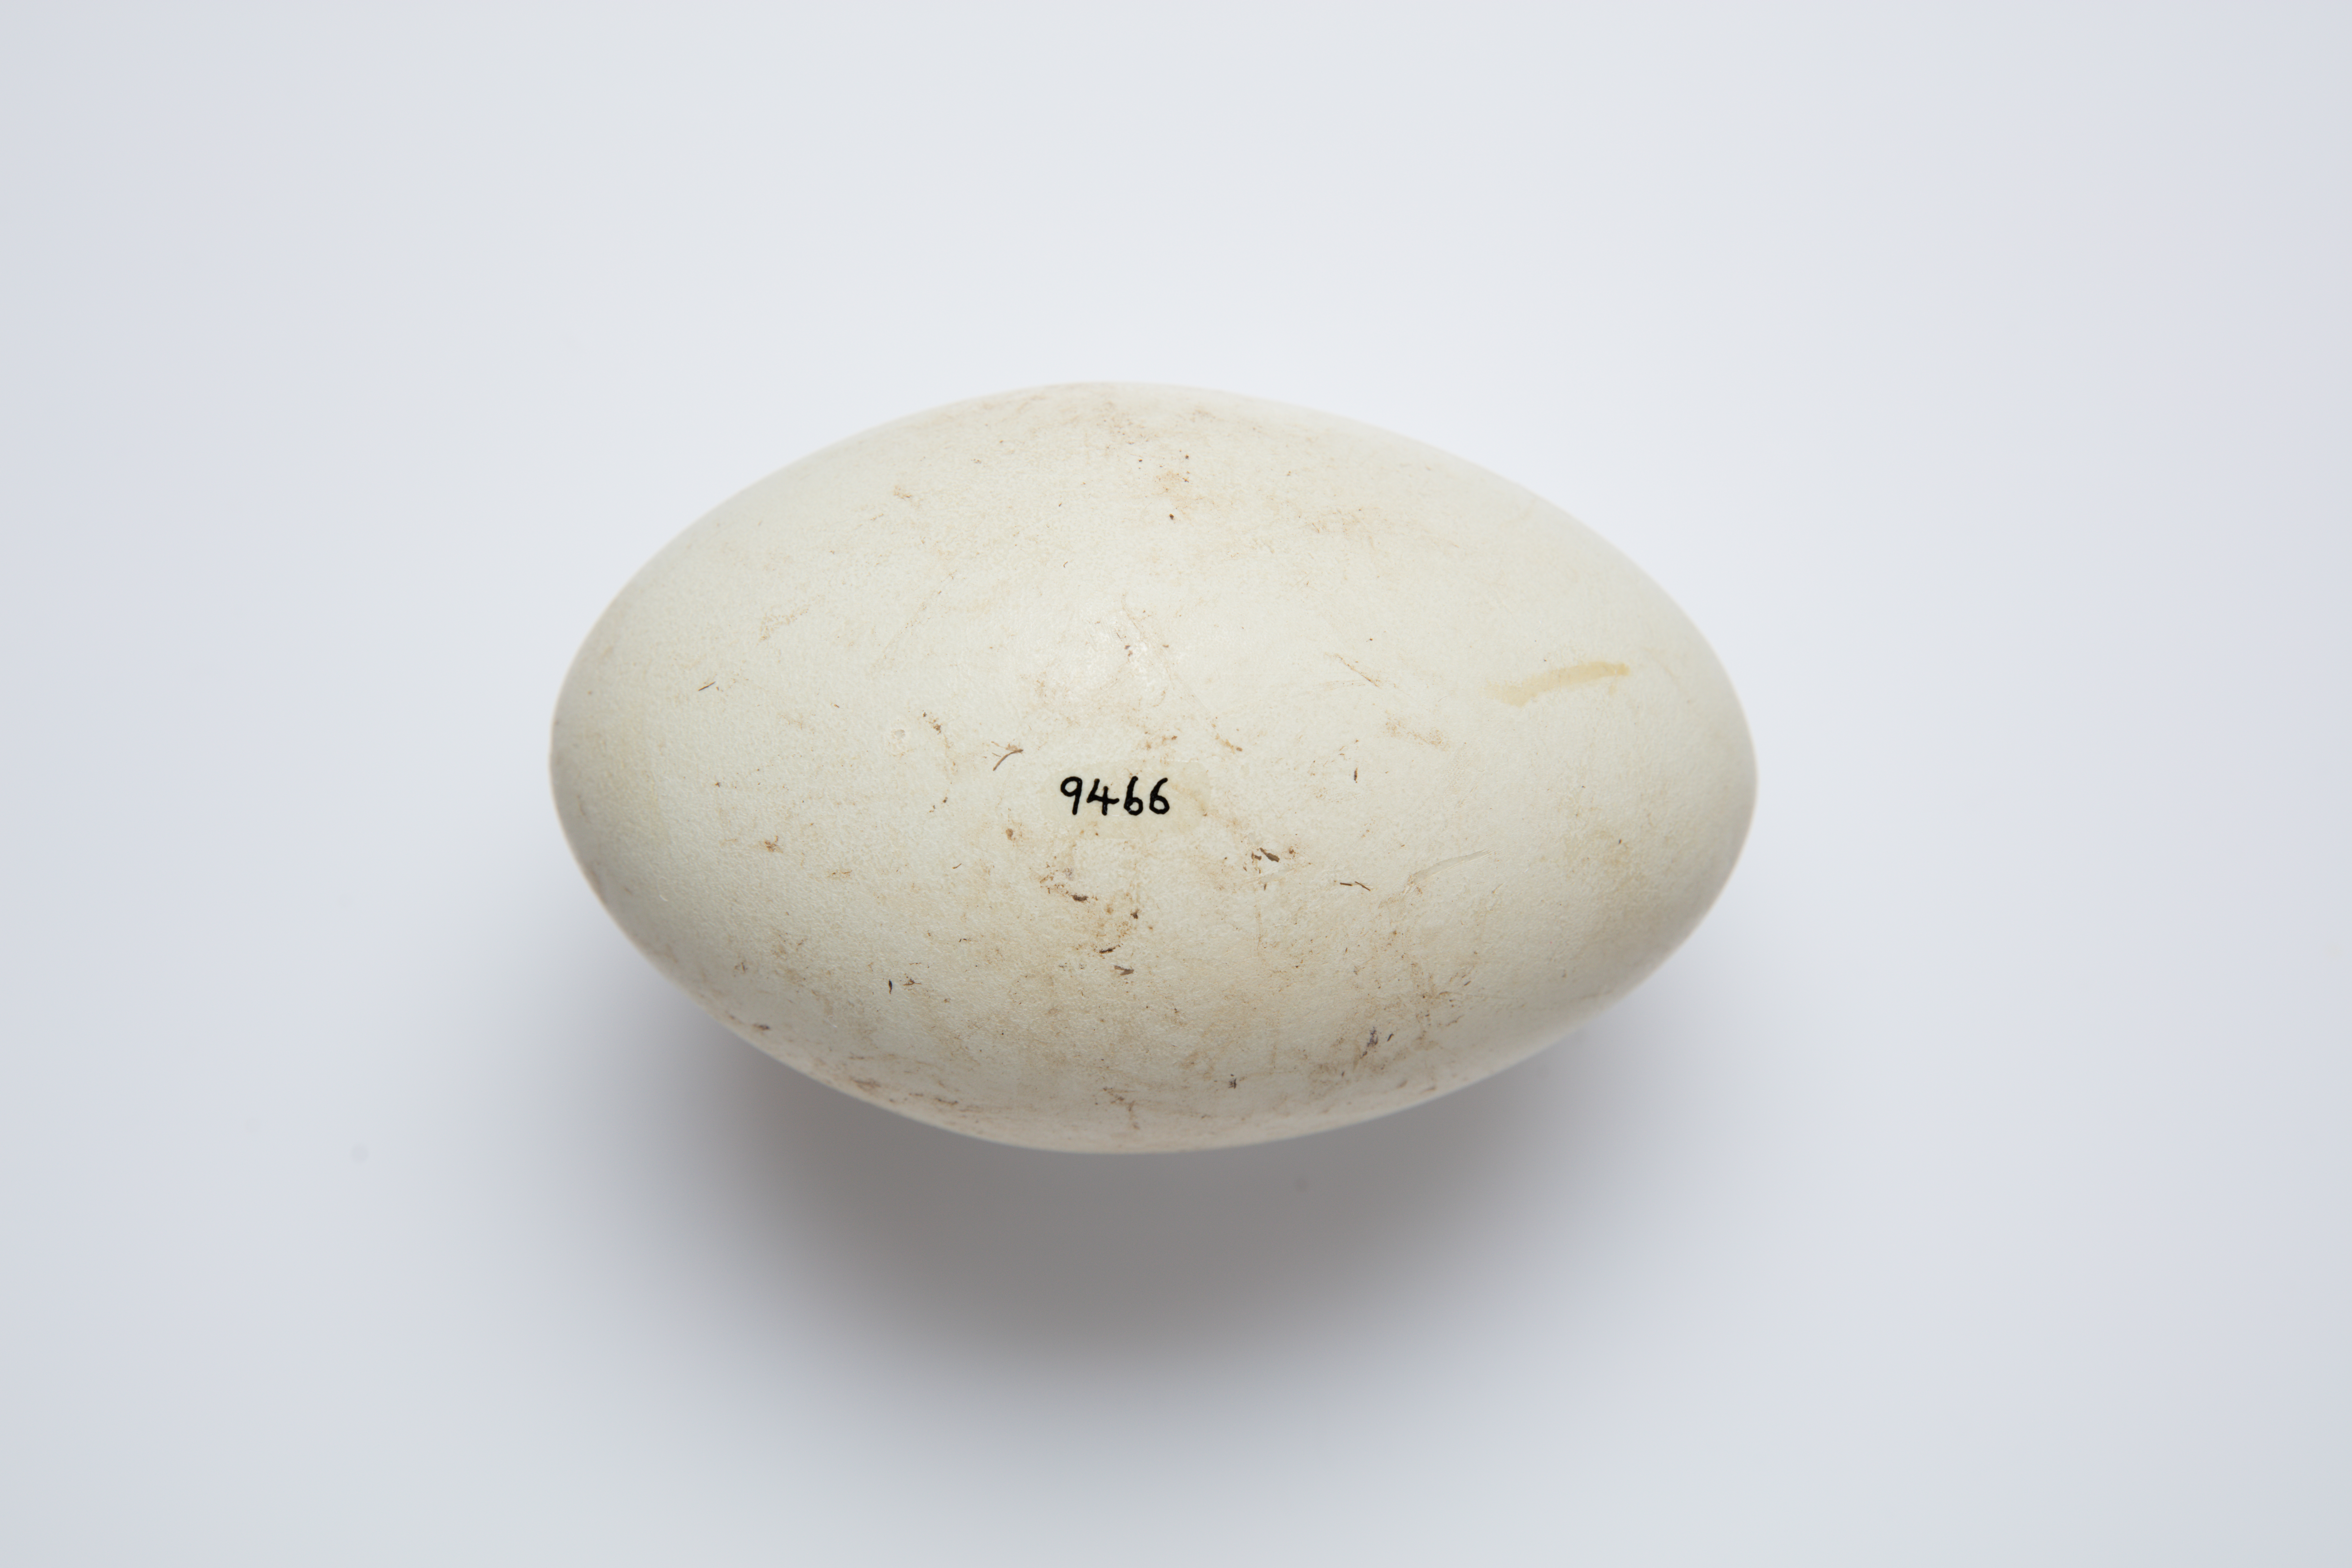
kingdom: Animalia
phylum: Chordata
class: Aves
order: Anseriformes
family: Anatidae
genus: Cygnus
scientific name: Cygnus atratus
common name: Black swan
